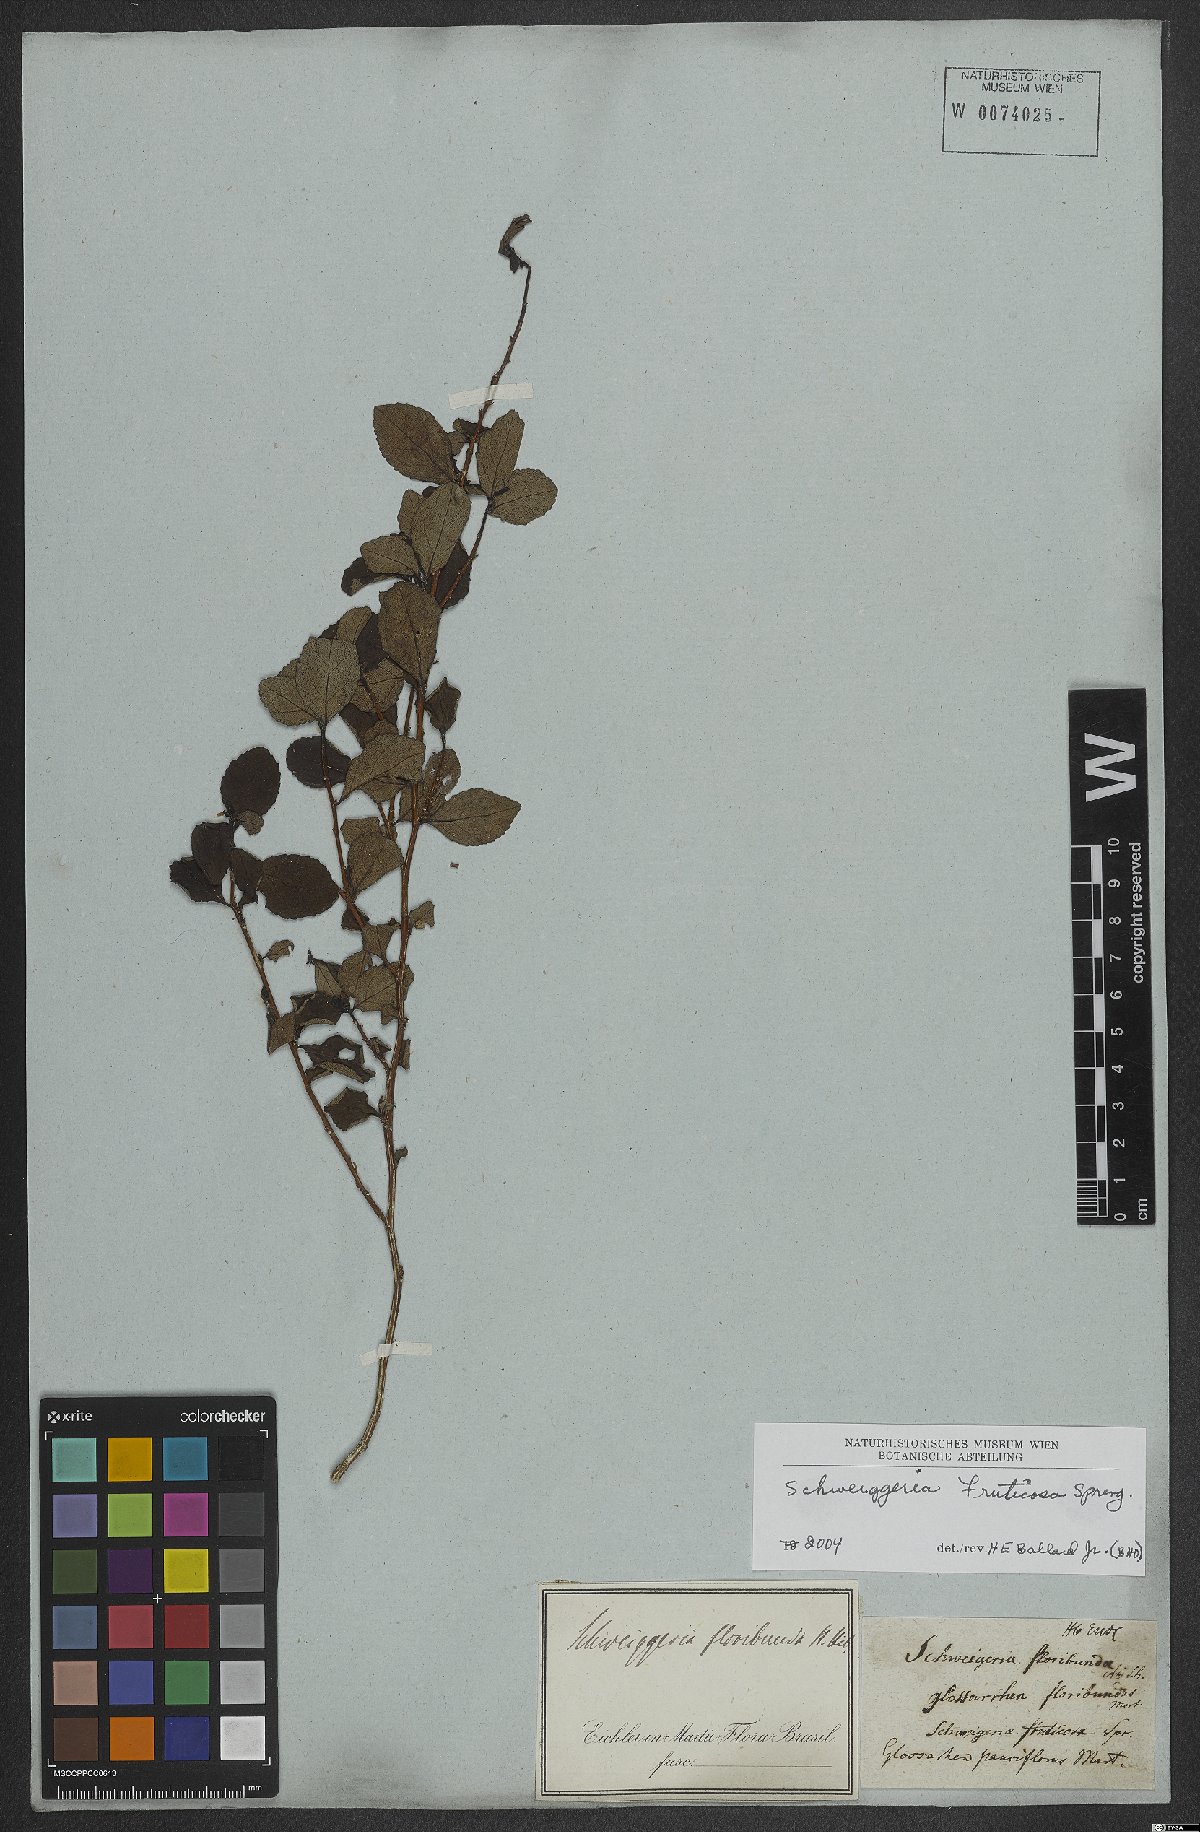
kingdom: Plantae
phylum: Tracheophyta
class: Magnoliopsida
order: Malpighiales
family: Violaceae
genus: Schweiggeria
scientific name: Schweiggeria fruticosa
